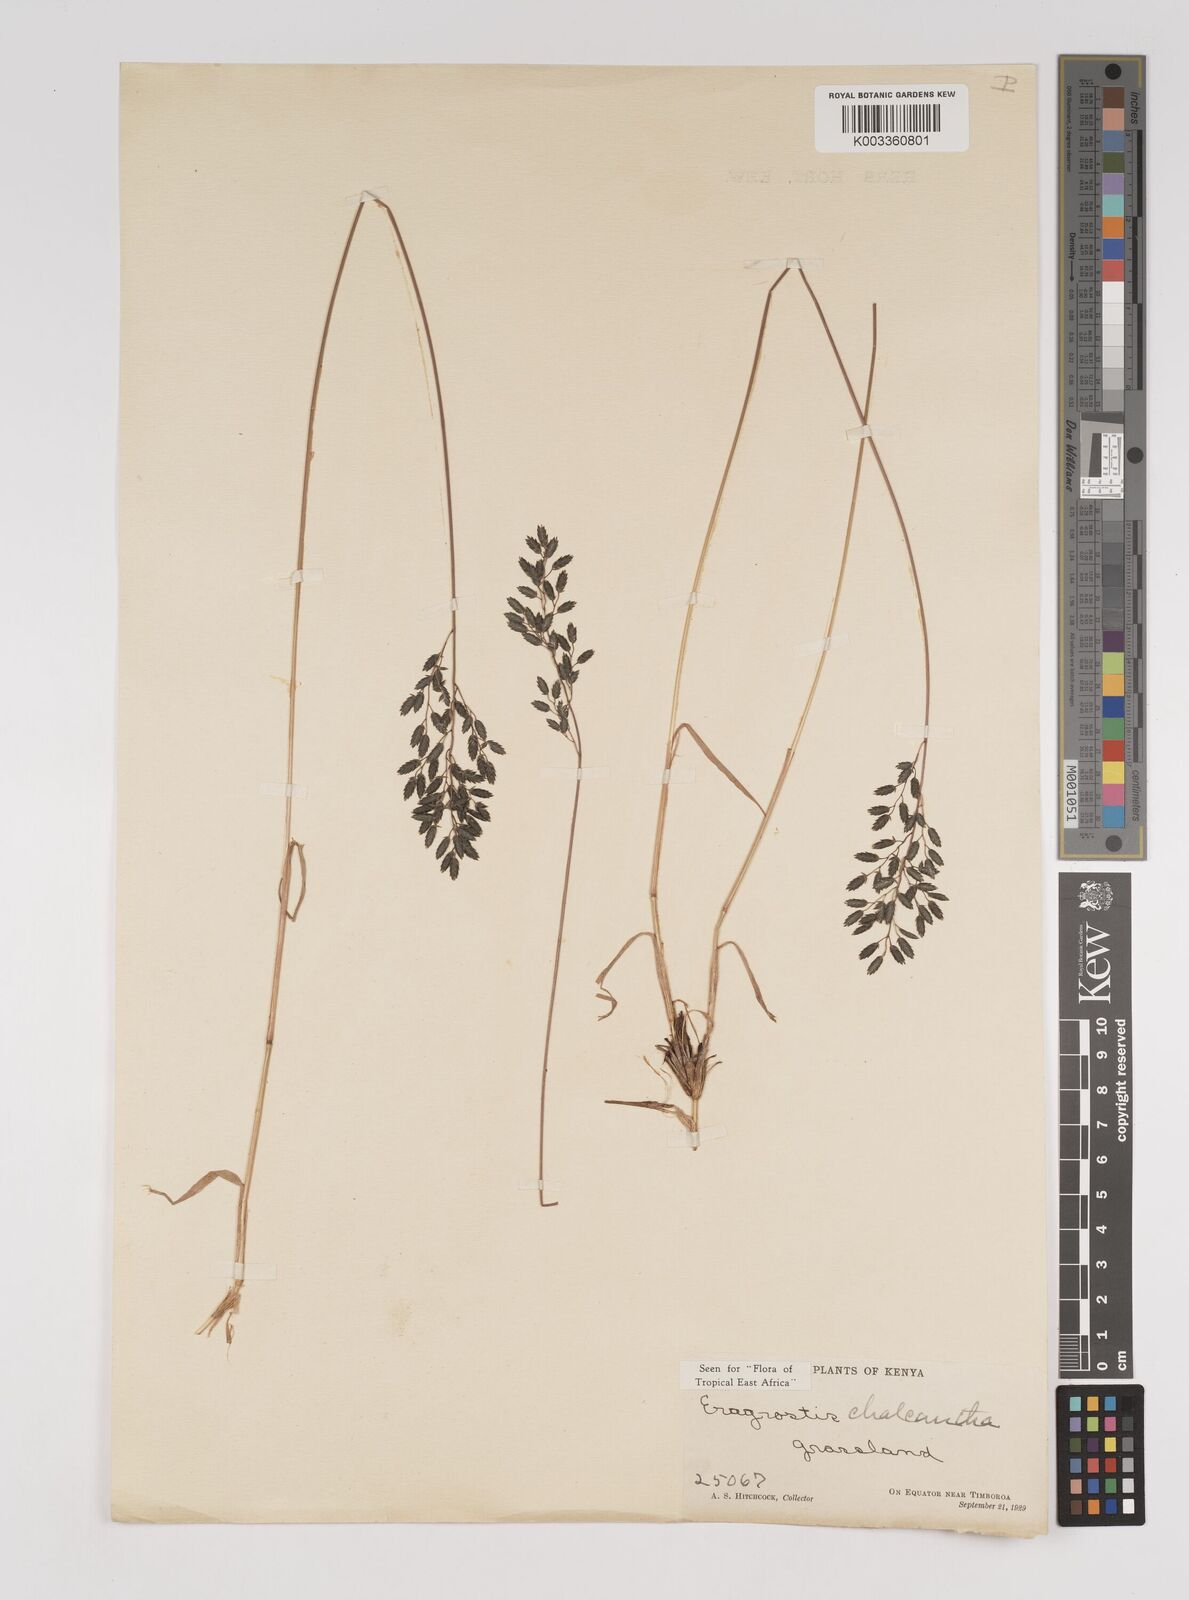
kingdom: Plantae
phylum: Tracheophyta
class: Liliopsida
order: Poales
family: Poaceae
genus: Eragrostis
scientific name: Eragrostis racemosa
